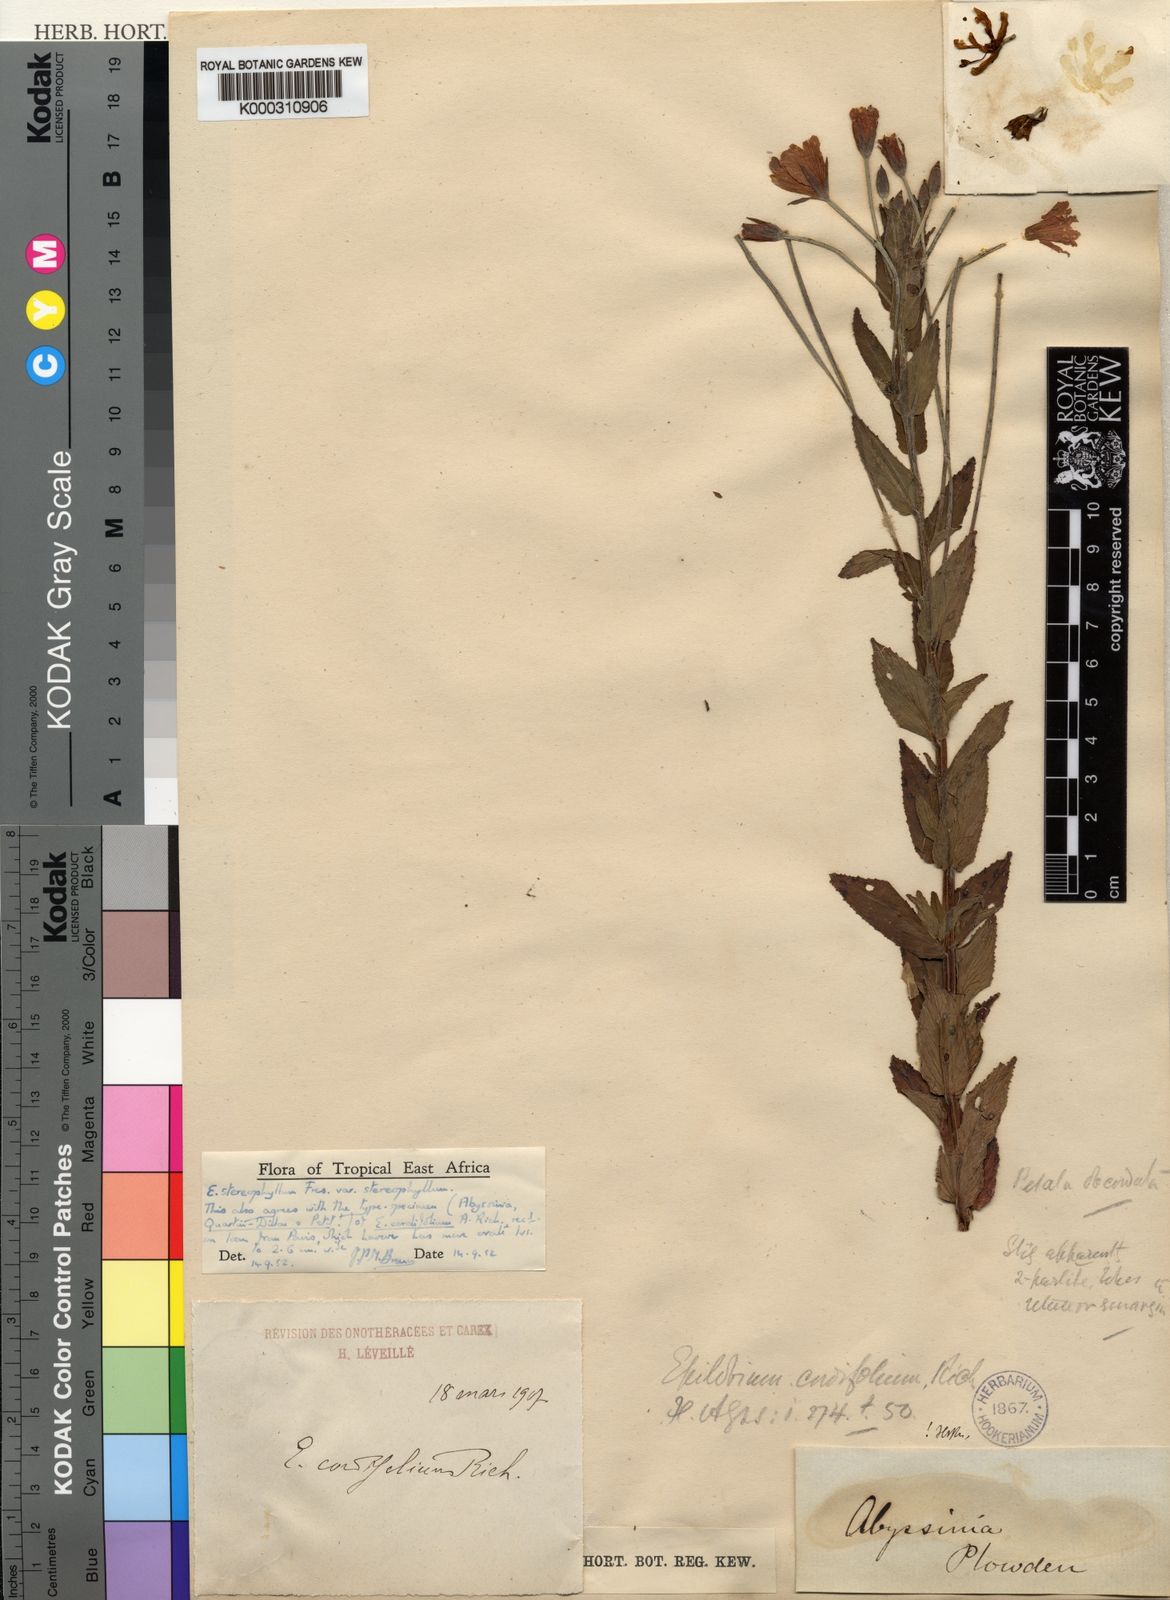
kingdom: Plantae
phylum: Tracheophyta
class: Magnoliopsida
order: Myrtales
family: Onagraceae
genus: Epilobium
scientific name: Epilobium stereophyllum
